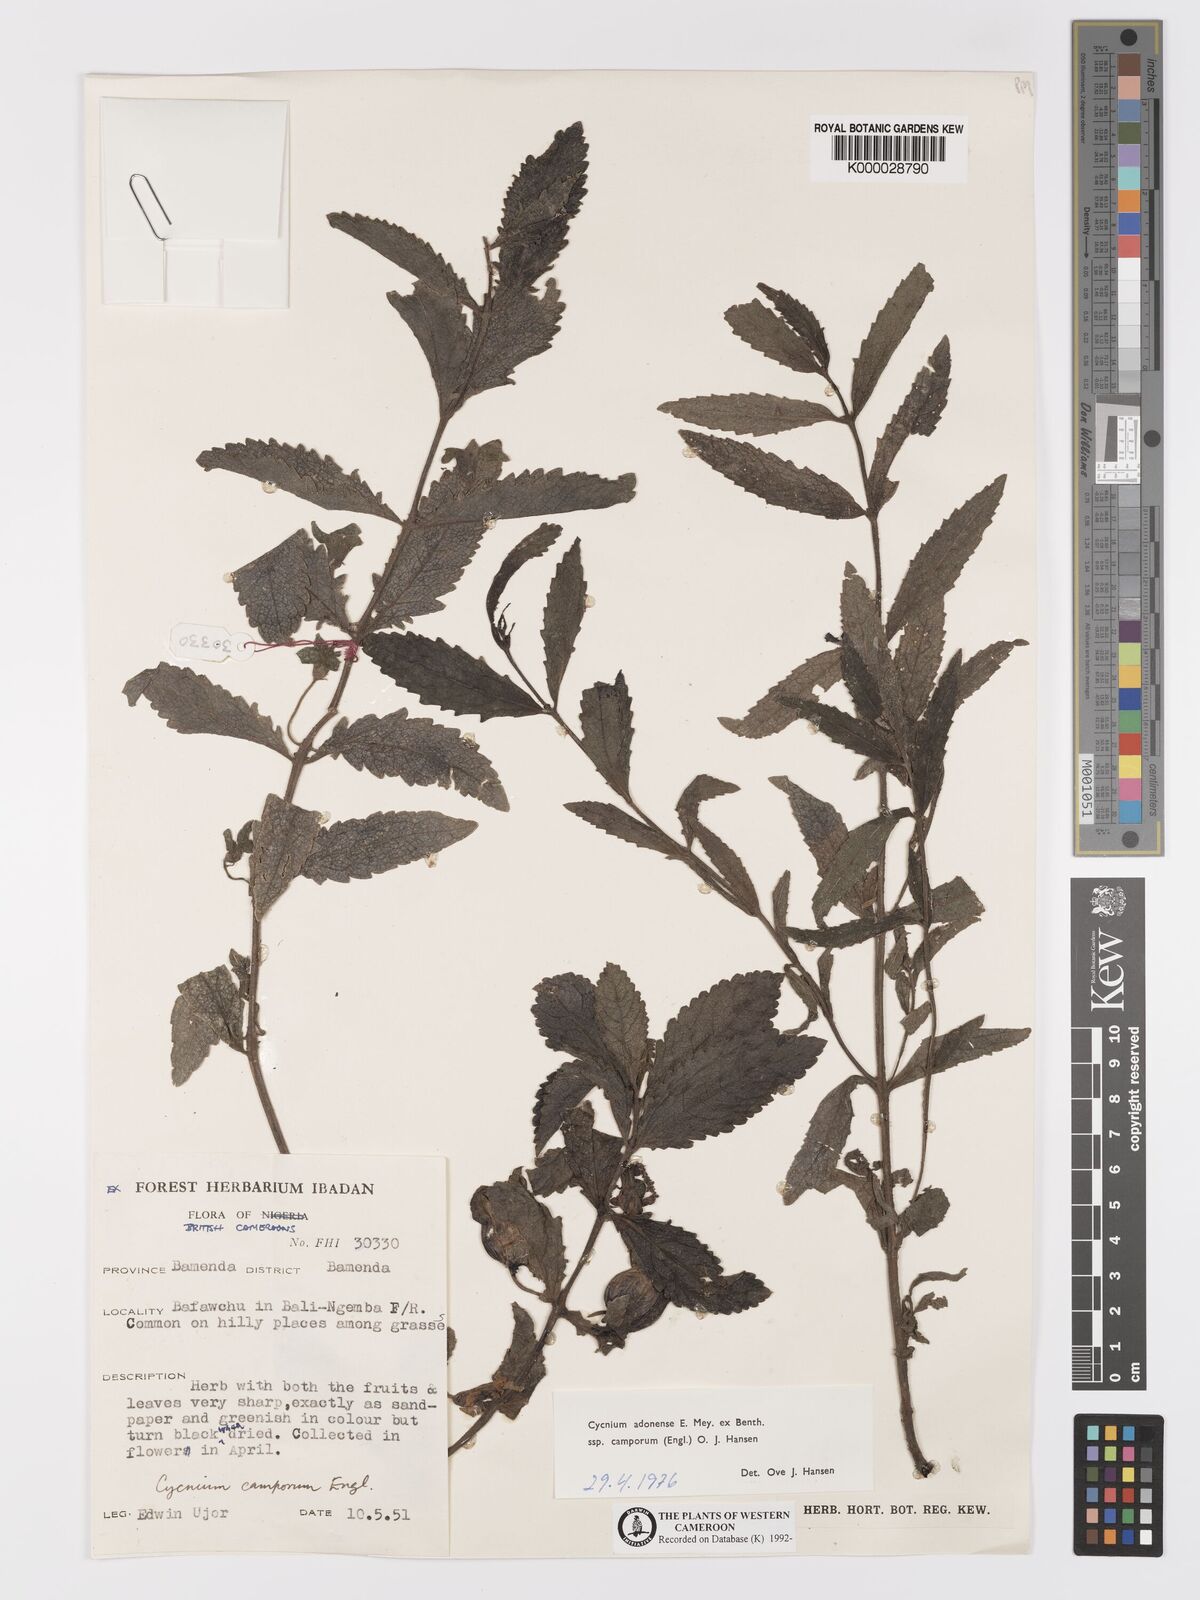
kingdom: Plantae
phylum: Tracheophyta
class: Magnoliopsida
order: Lamiales
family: Orobanchaceae
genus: Cycnium
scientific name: Cycnium adoense
